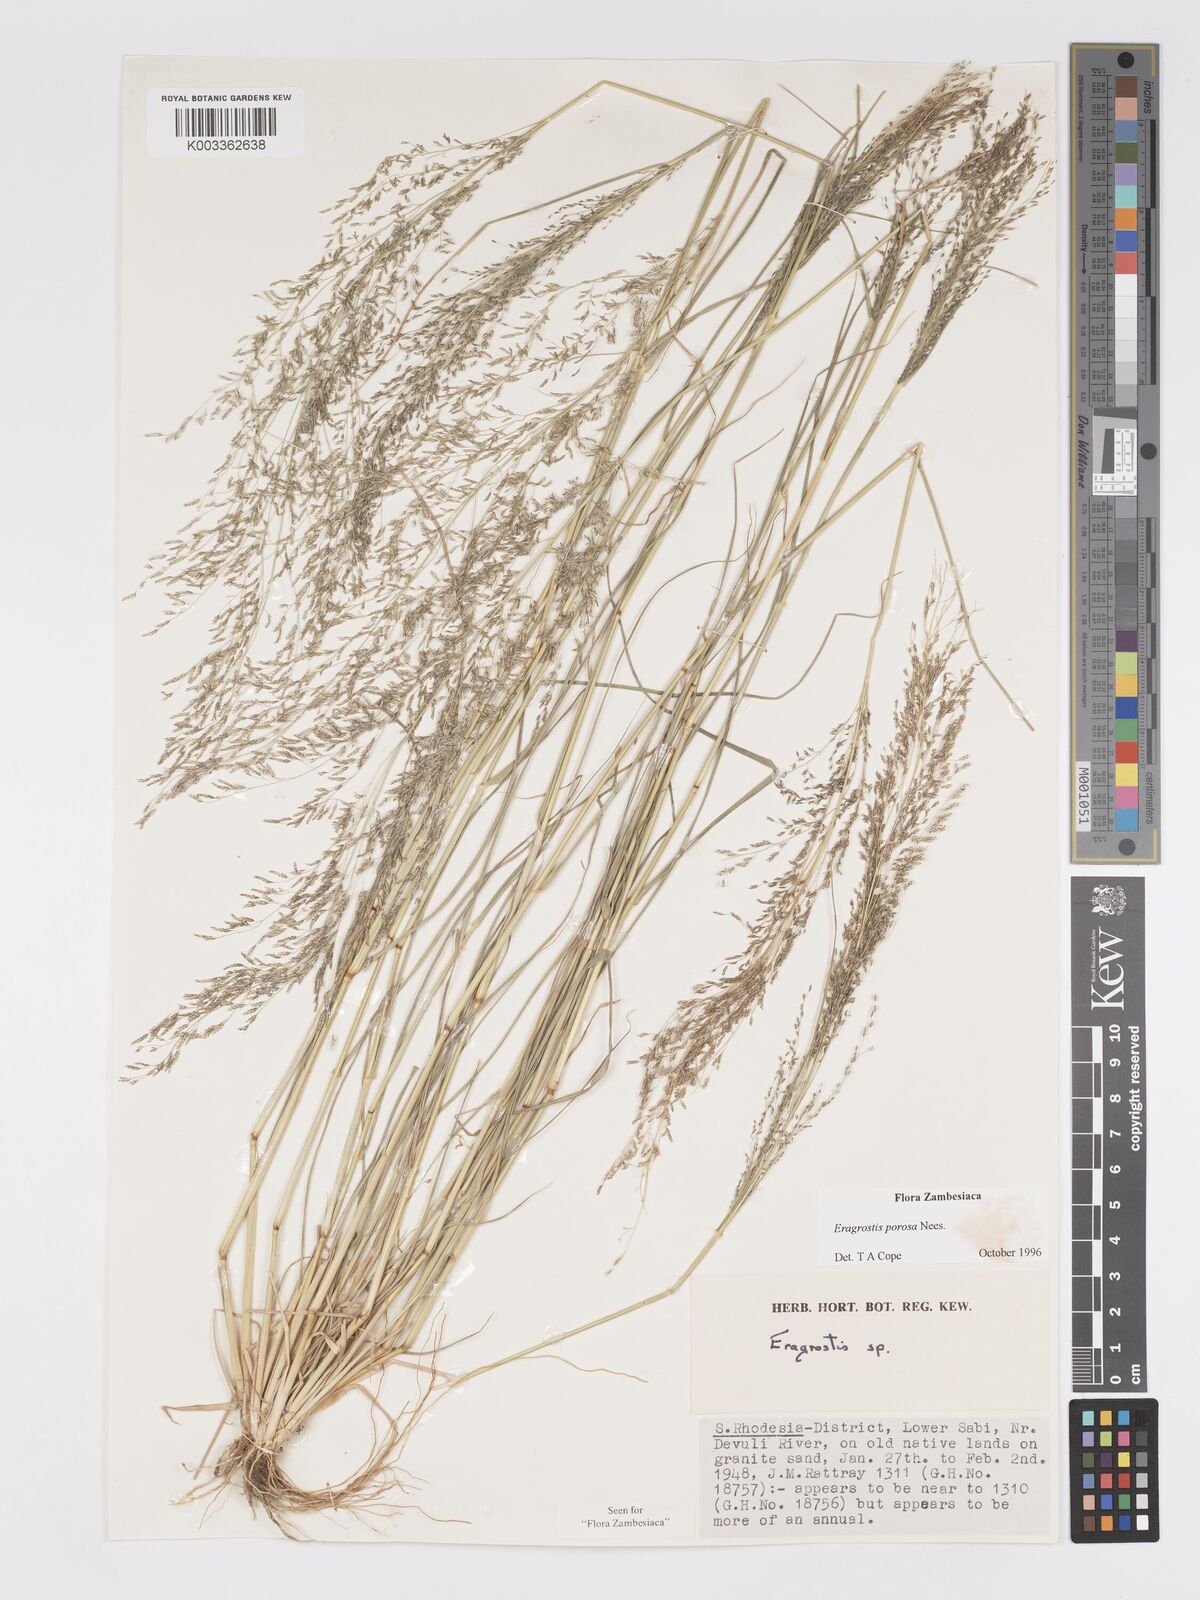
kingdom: Plantae
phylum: Tracheophyta
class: Liliopsida
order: Poales
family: Poaceae
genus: Eragrostis
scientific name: Eragrostis porosa
